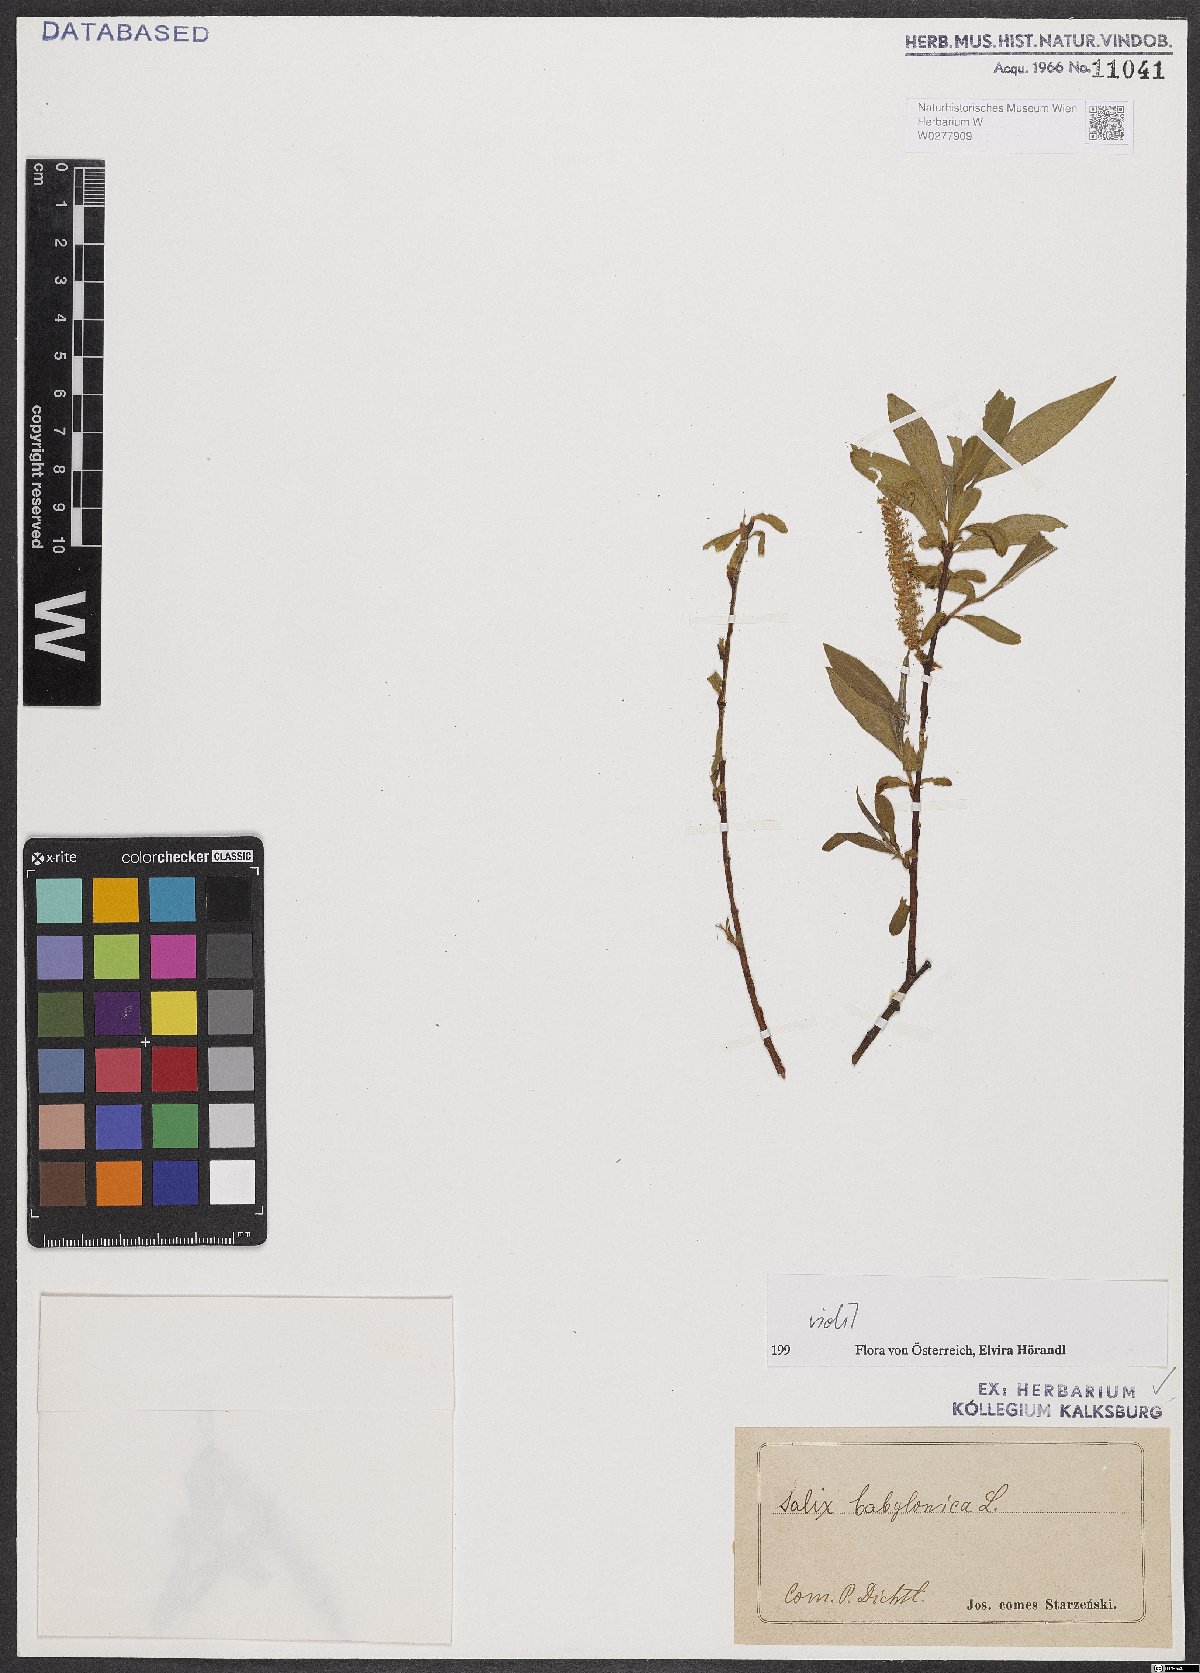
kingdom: Plantae
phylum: Tracheophyta
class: Magnoliopsida
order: Malpighiales
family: Salicaceae
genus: Salix
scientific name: Salix babylonica
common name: Weeping willow
